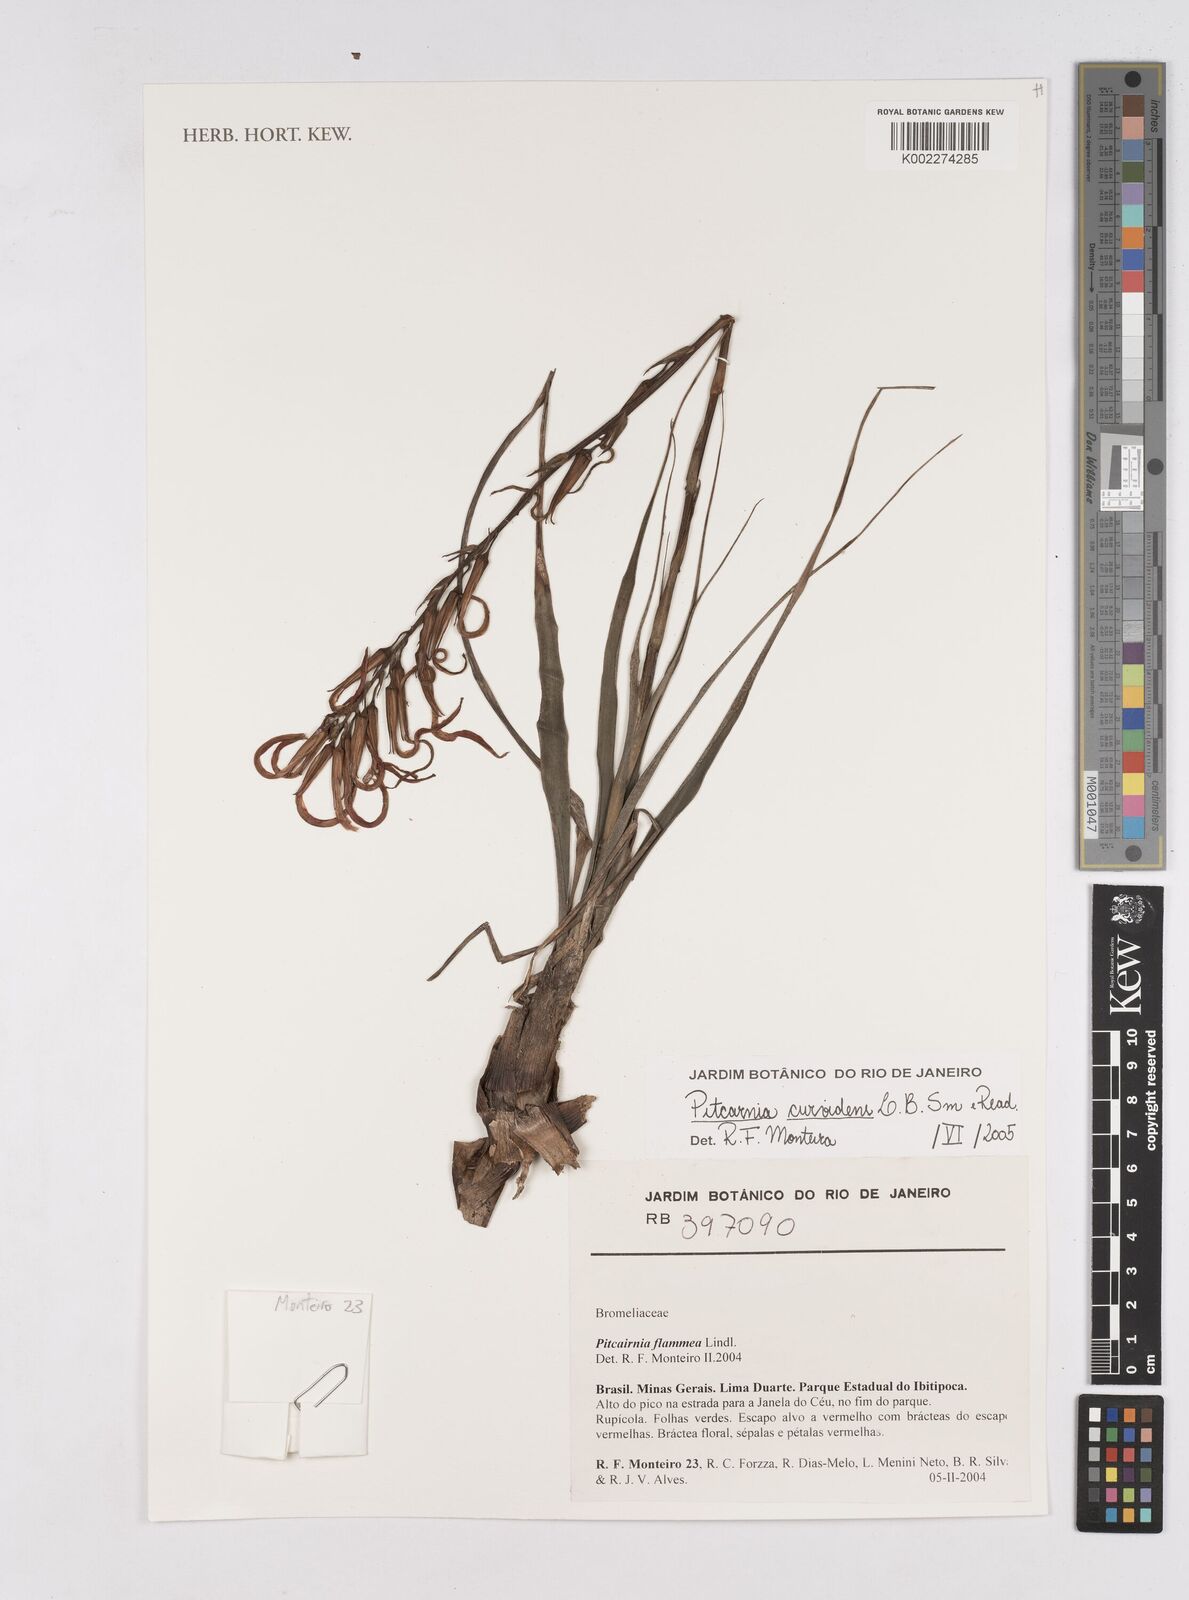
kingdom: Plantae
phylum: Tracheophyta
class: Liliopsida
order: Poales
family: Bromeliaceae
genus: Pitcairnia
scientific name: Pitcairnia curvidens
